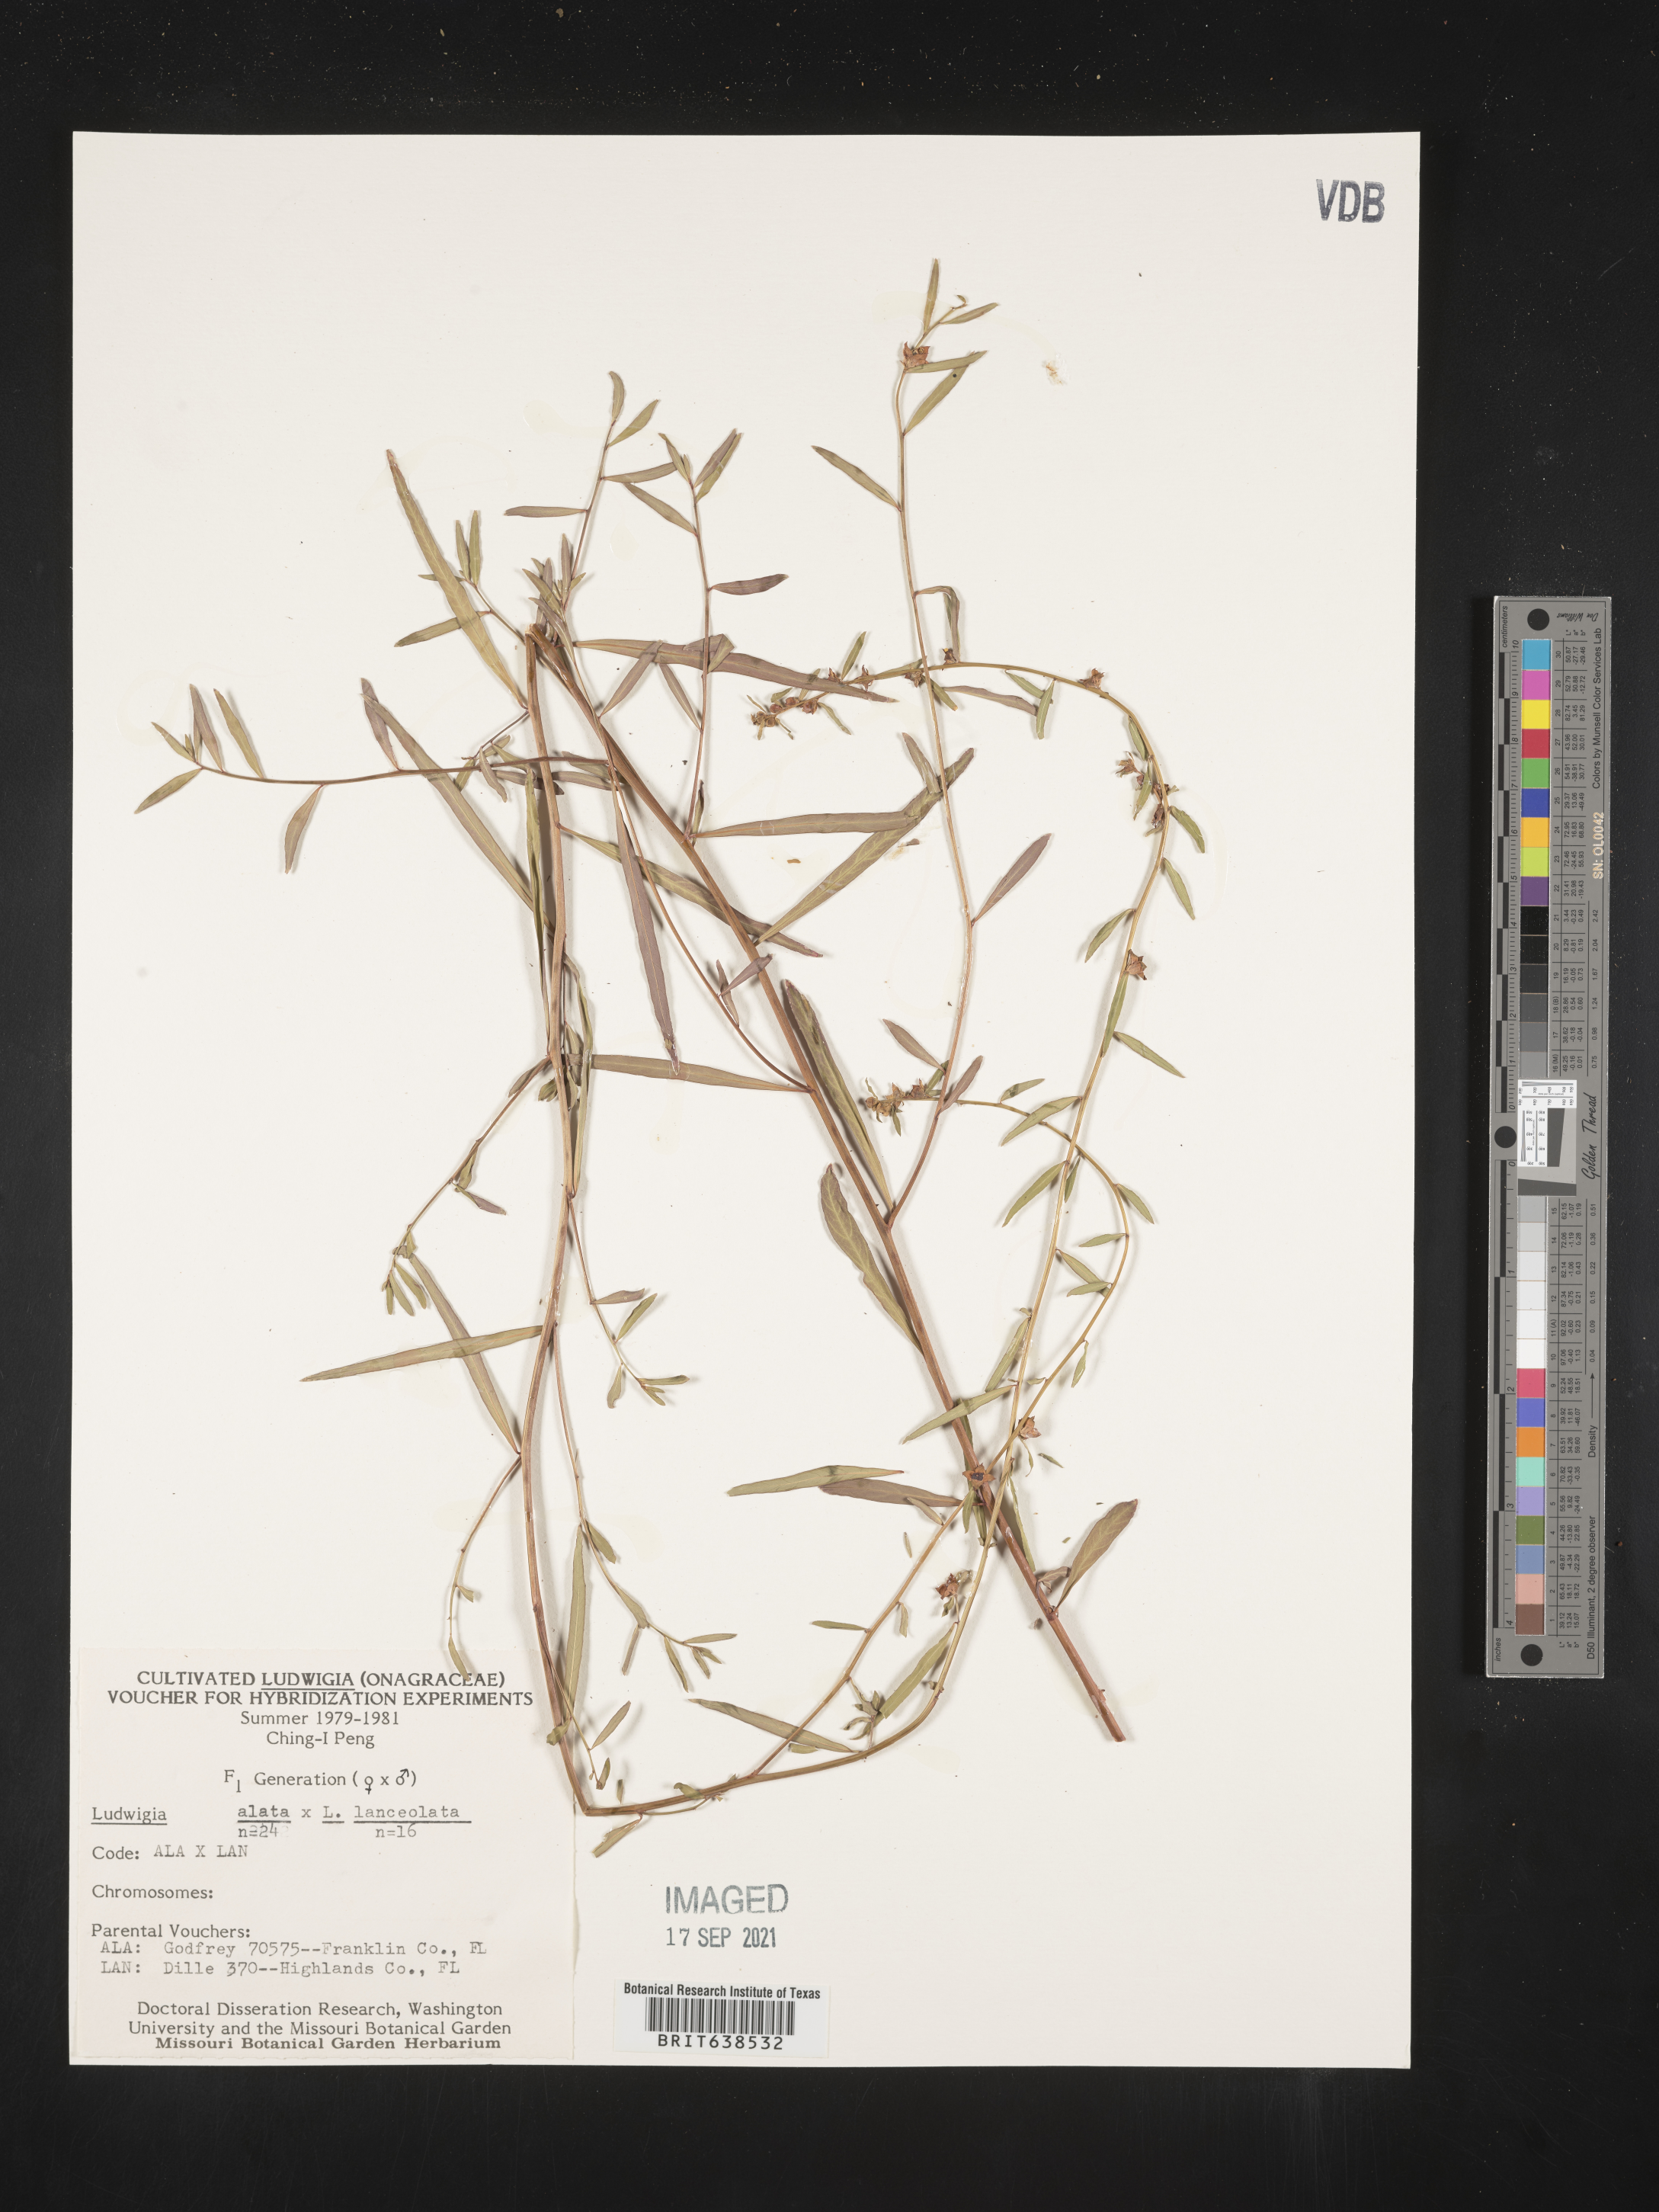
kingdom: Plantae
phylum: Tracheophyta
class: Magnoliopsida
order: Myrtales
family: Onagraceae
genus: Ludwigia
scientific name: Ludwigia
